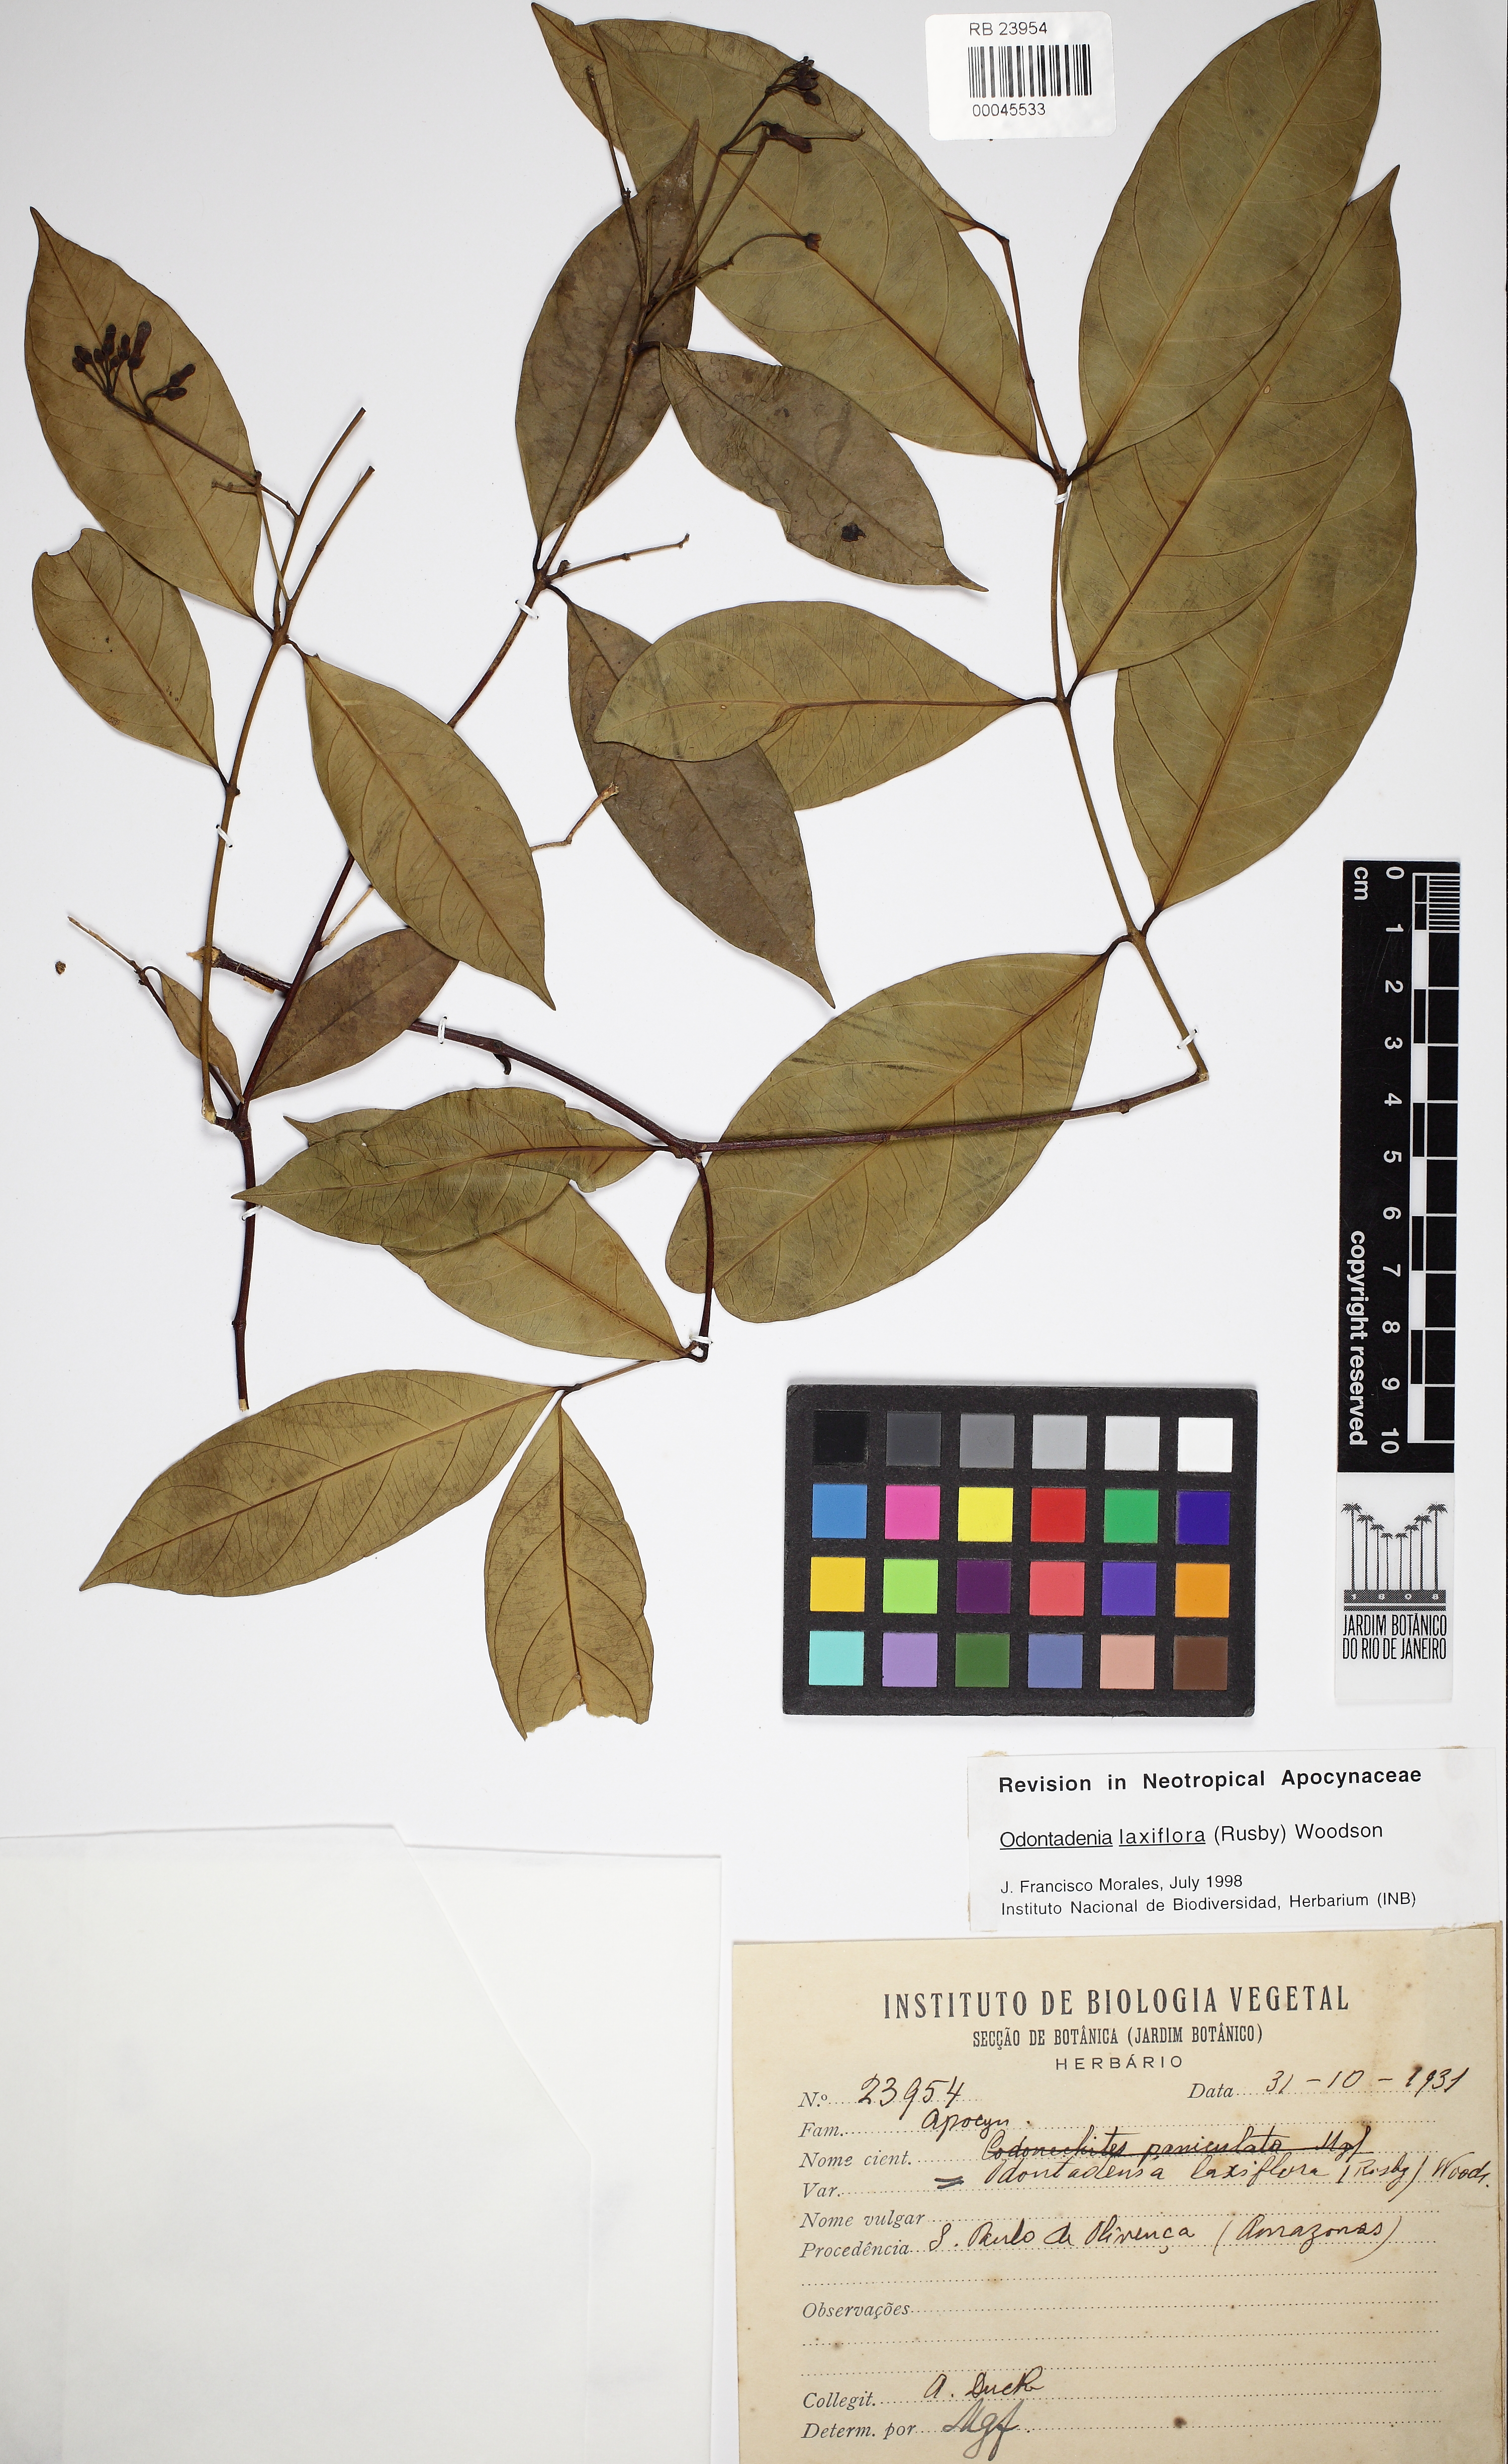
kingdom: Plantae
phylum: Tracheophyta
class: Magnoliopsida
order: Gentianales
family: Apocynaceae
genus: Odontadenia
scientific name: Odontadenia laxiflora
